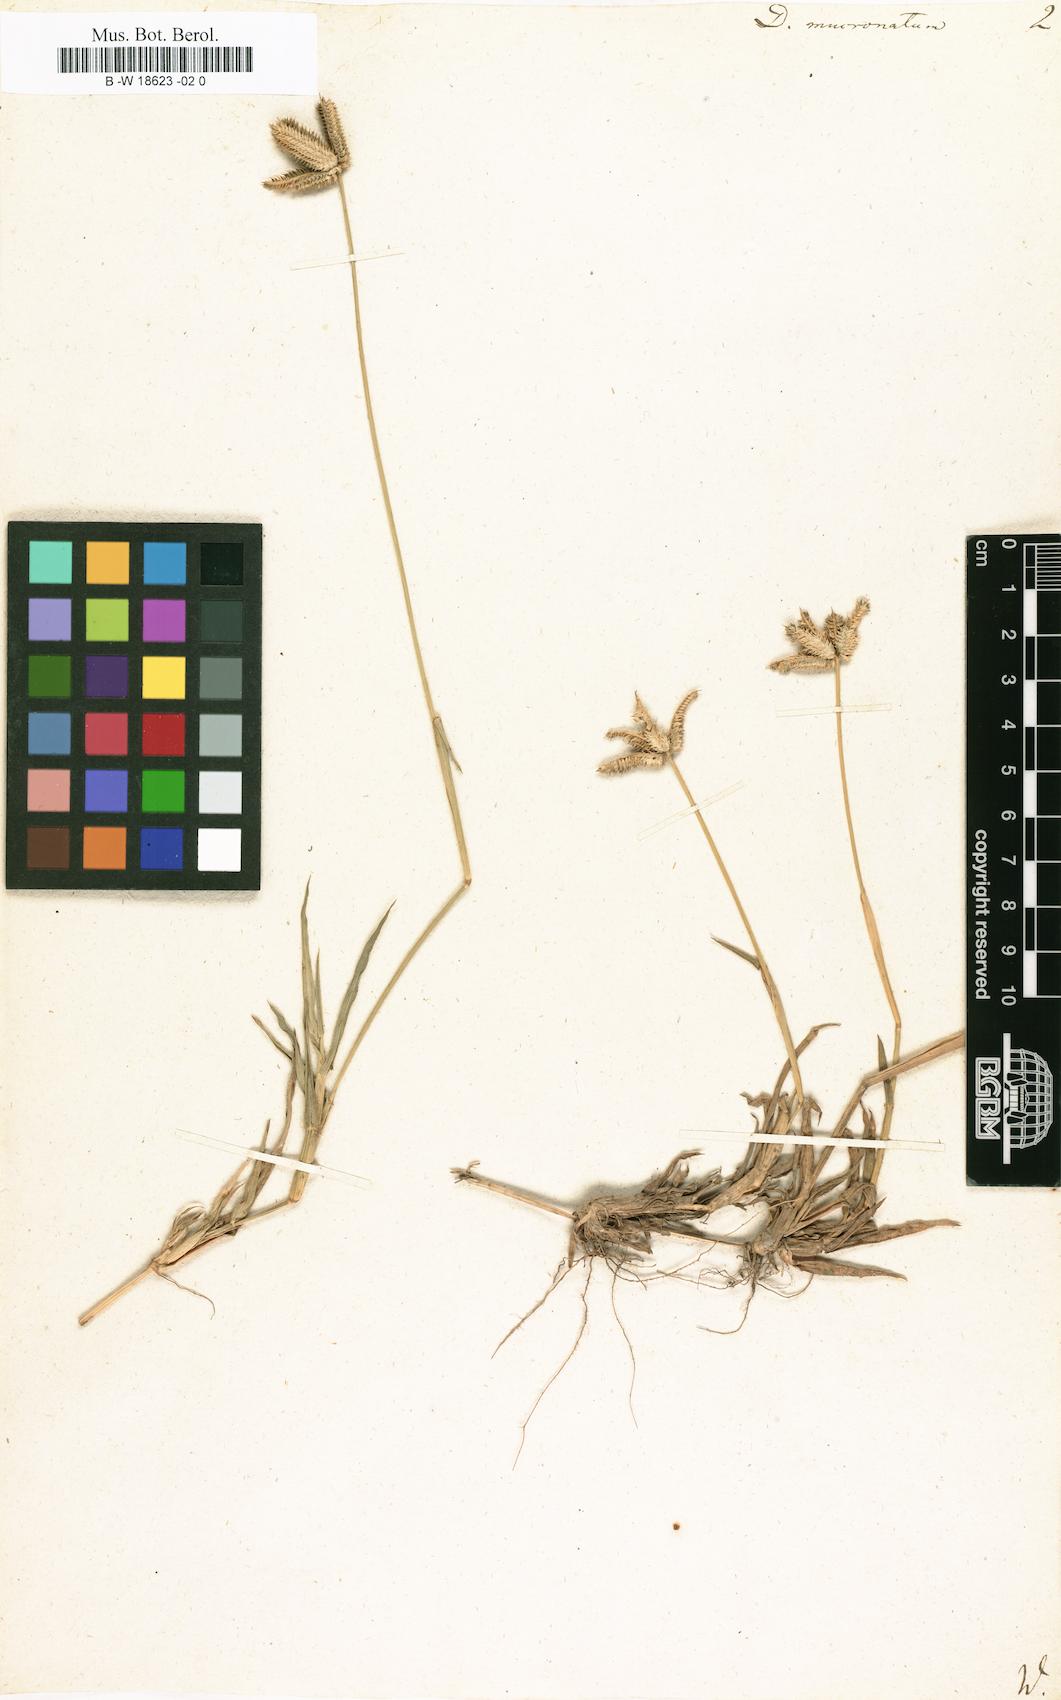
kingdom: Plantae
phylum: Tracheophyta
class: Liliopsida
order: Poales
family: Poaceae
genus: Dactyloctenium
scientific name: Dactyloctenium aegyptium
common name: Egyptian grass
